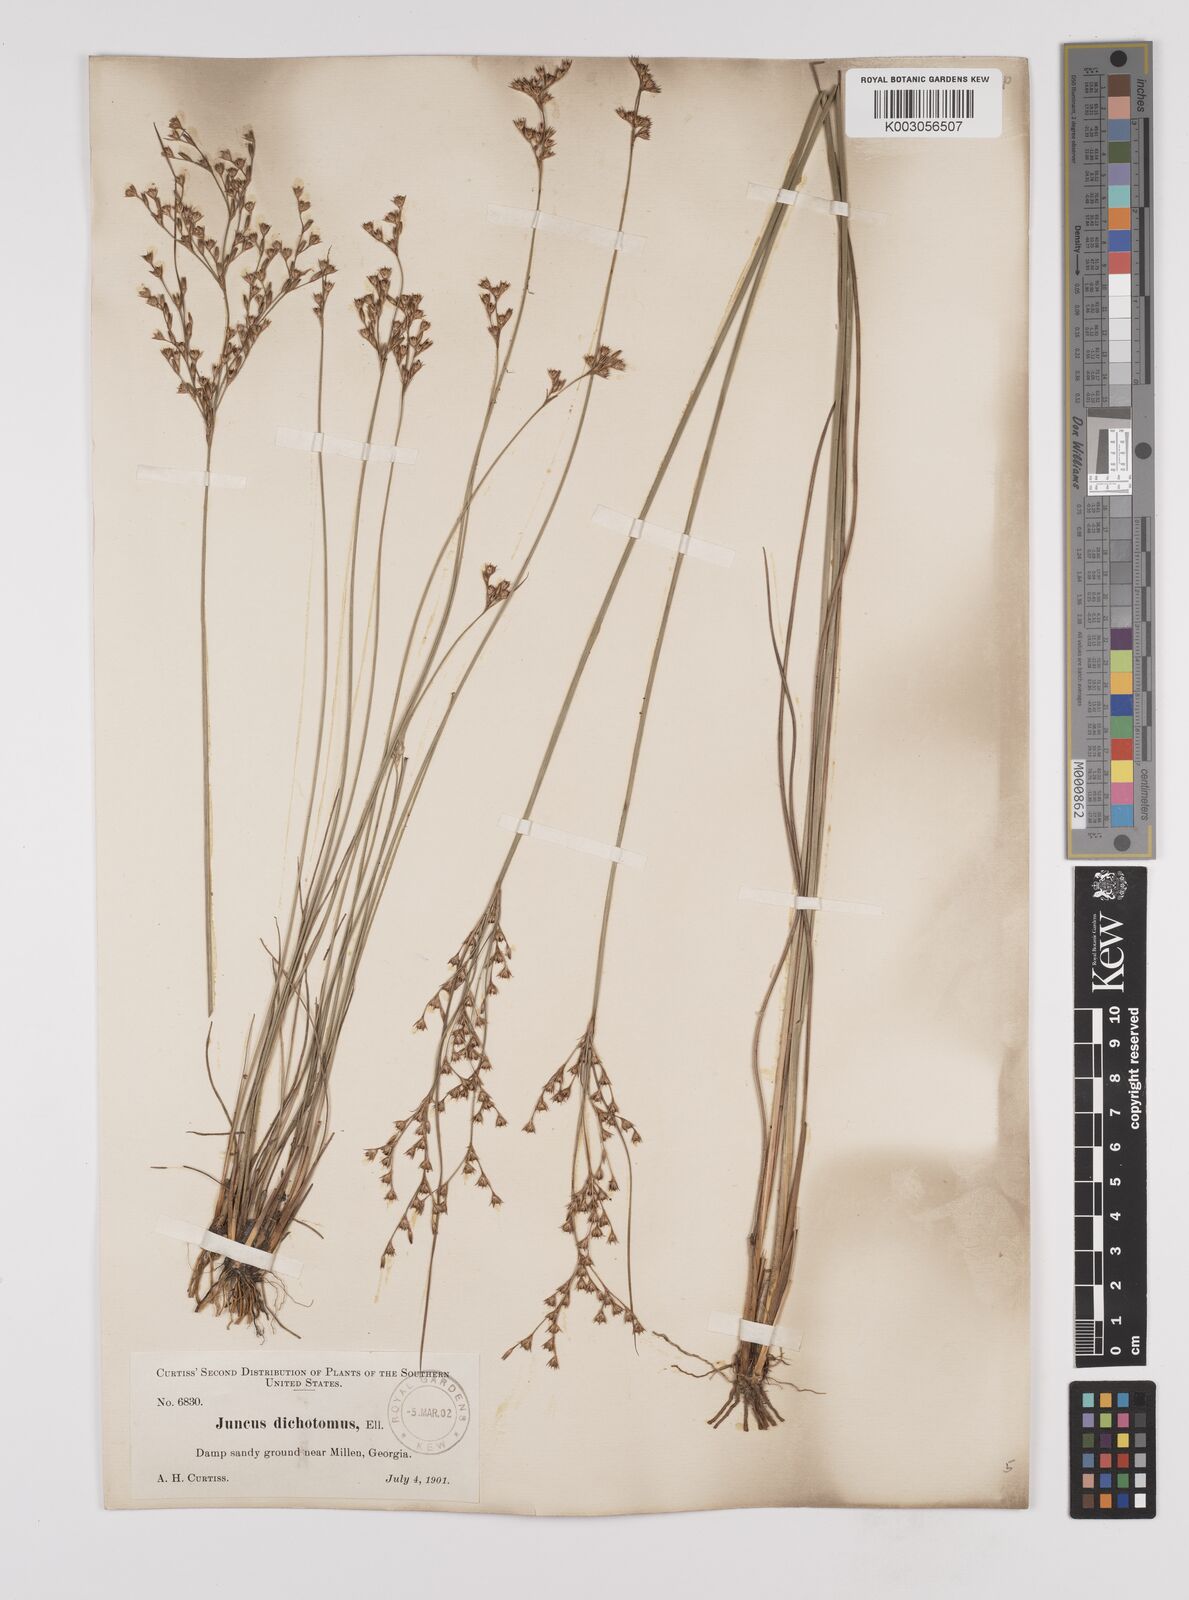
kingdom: Plantae
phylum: Tracheophyta
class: Liliopsida
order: Poales
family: Juncaceae
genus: Juncus
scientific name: Juncus dichotomus
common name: Forked rush
